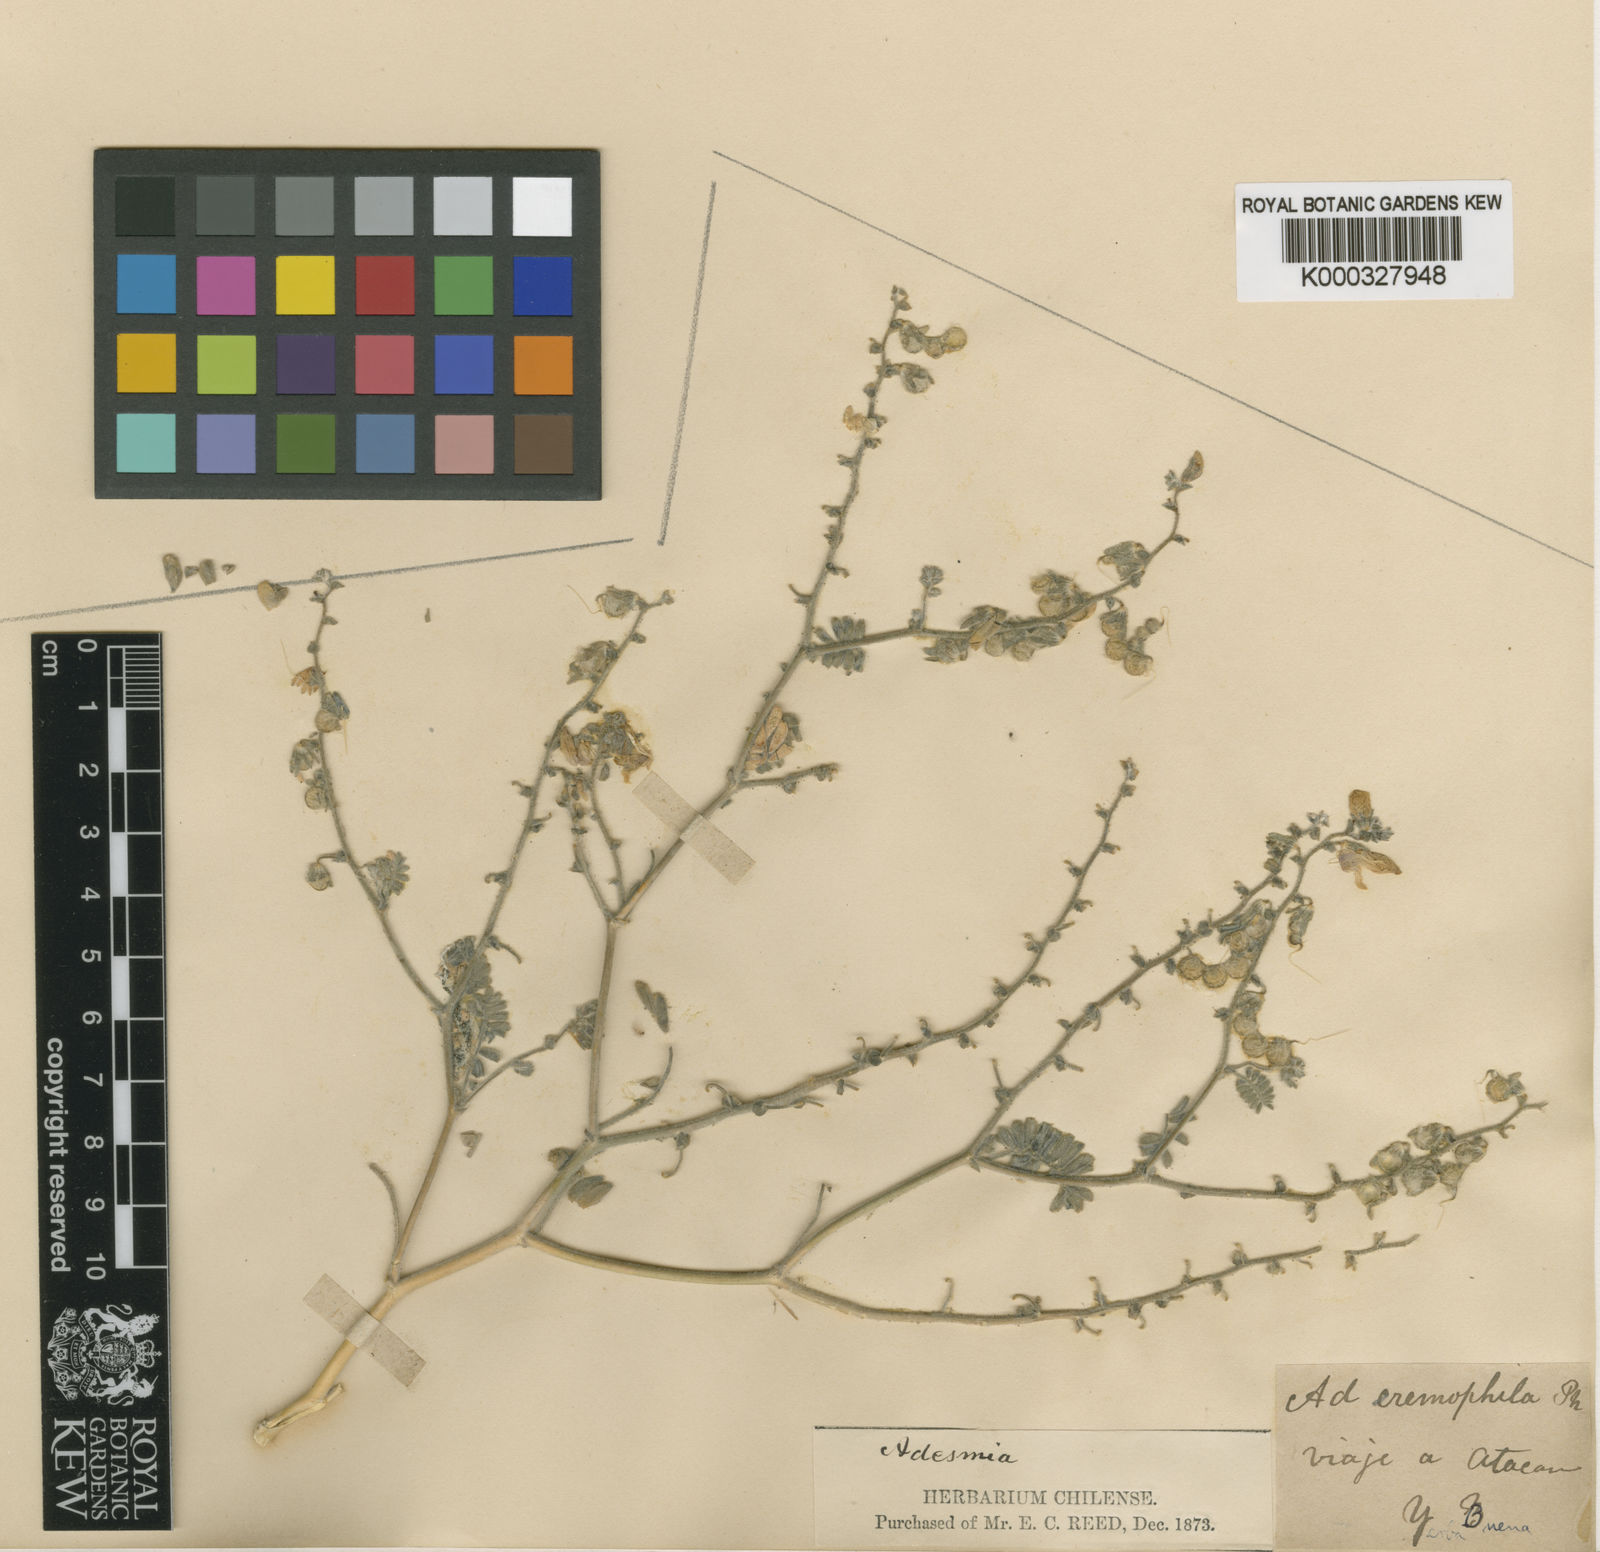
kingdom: Plantae
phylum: Tracheophyta
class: Magnoliopsida
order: Fabales
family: Fabaceae
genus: Adesmia
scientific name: Adesmia eremophila
